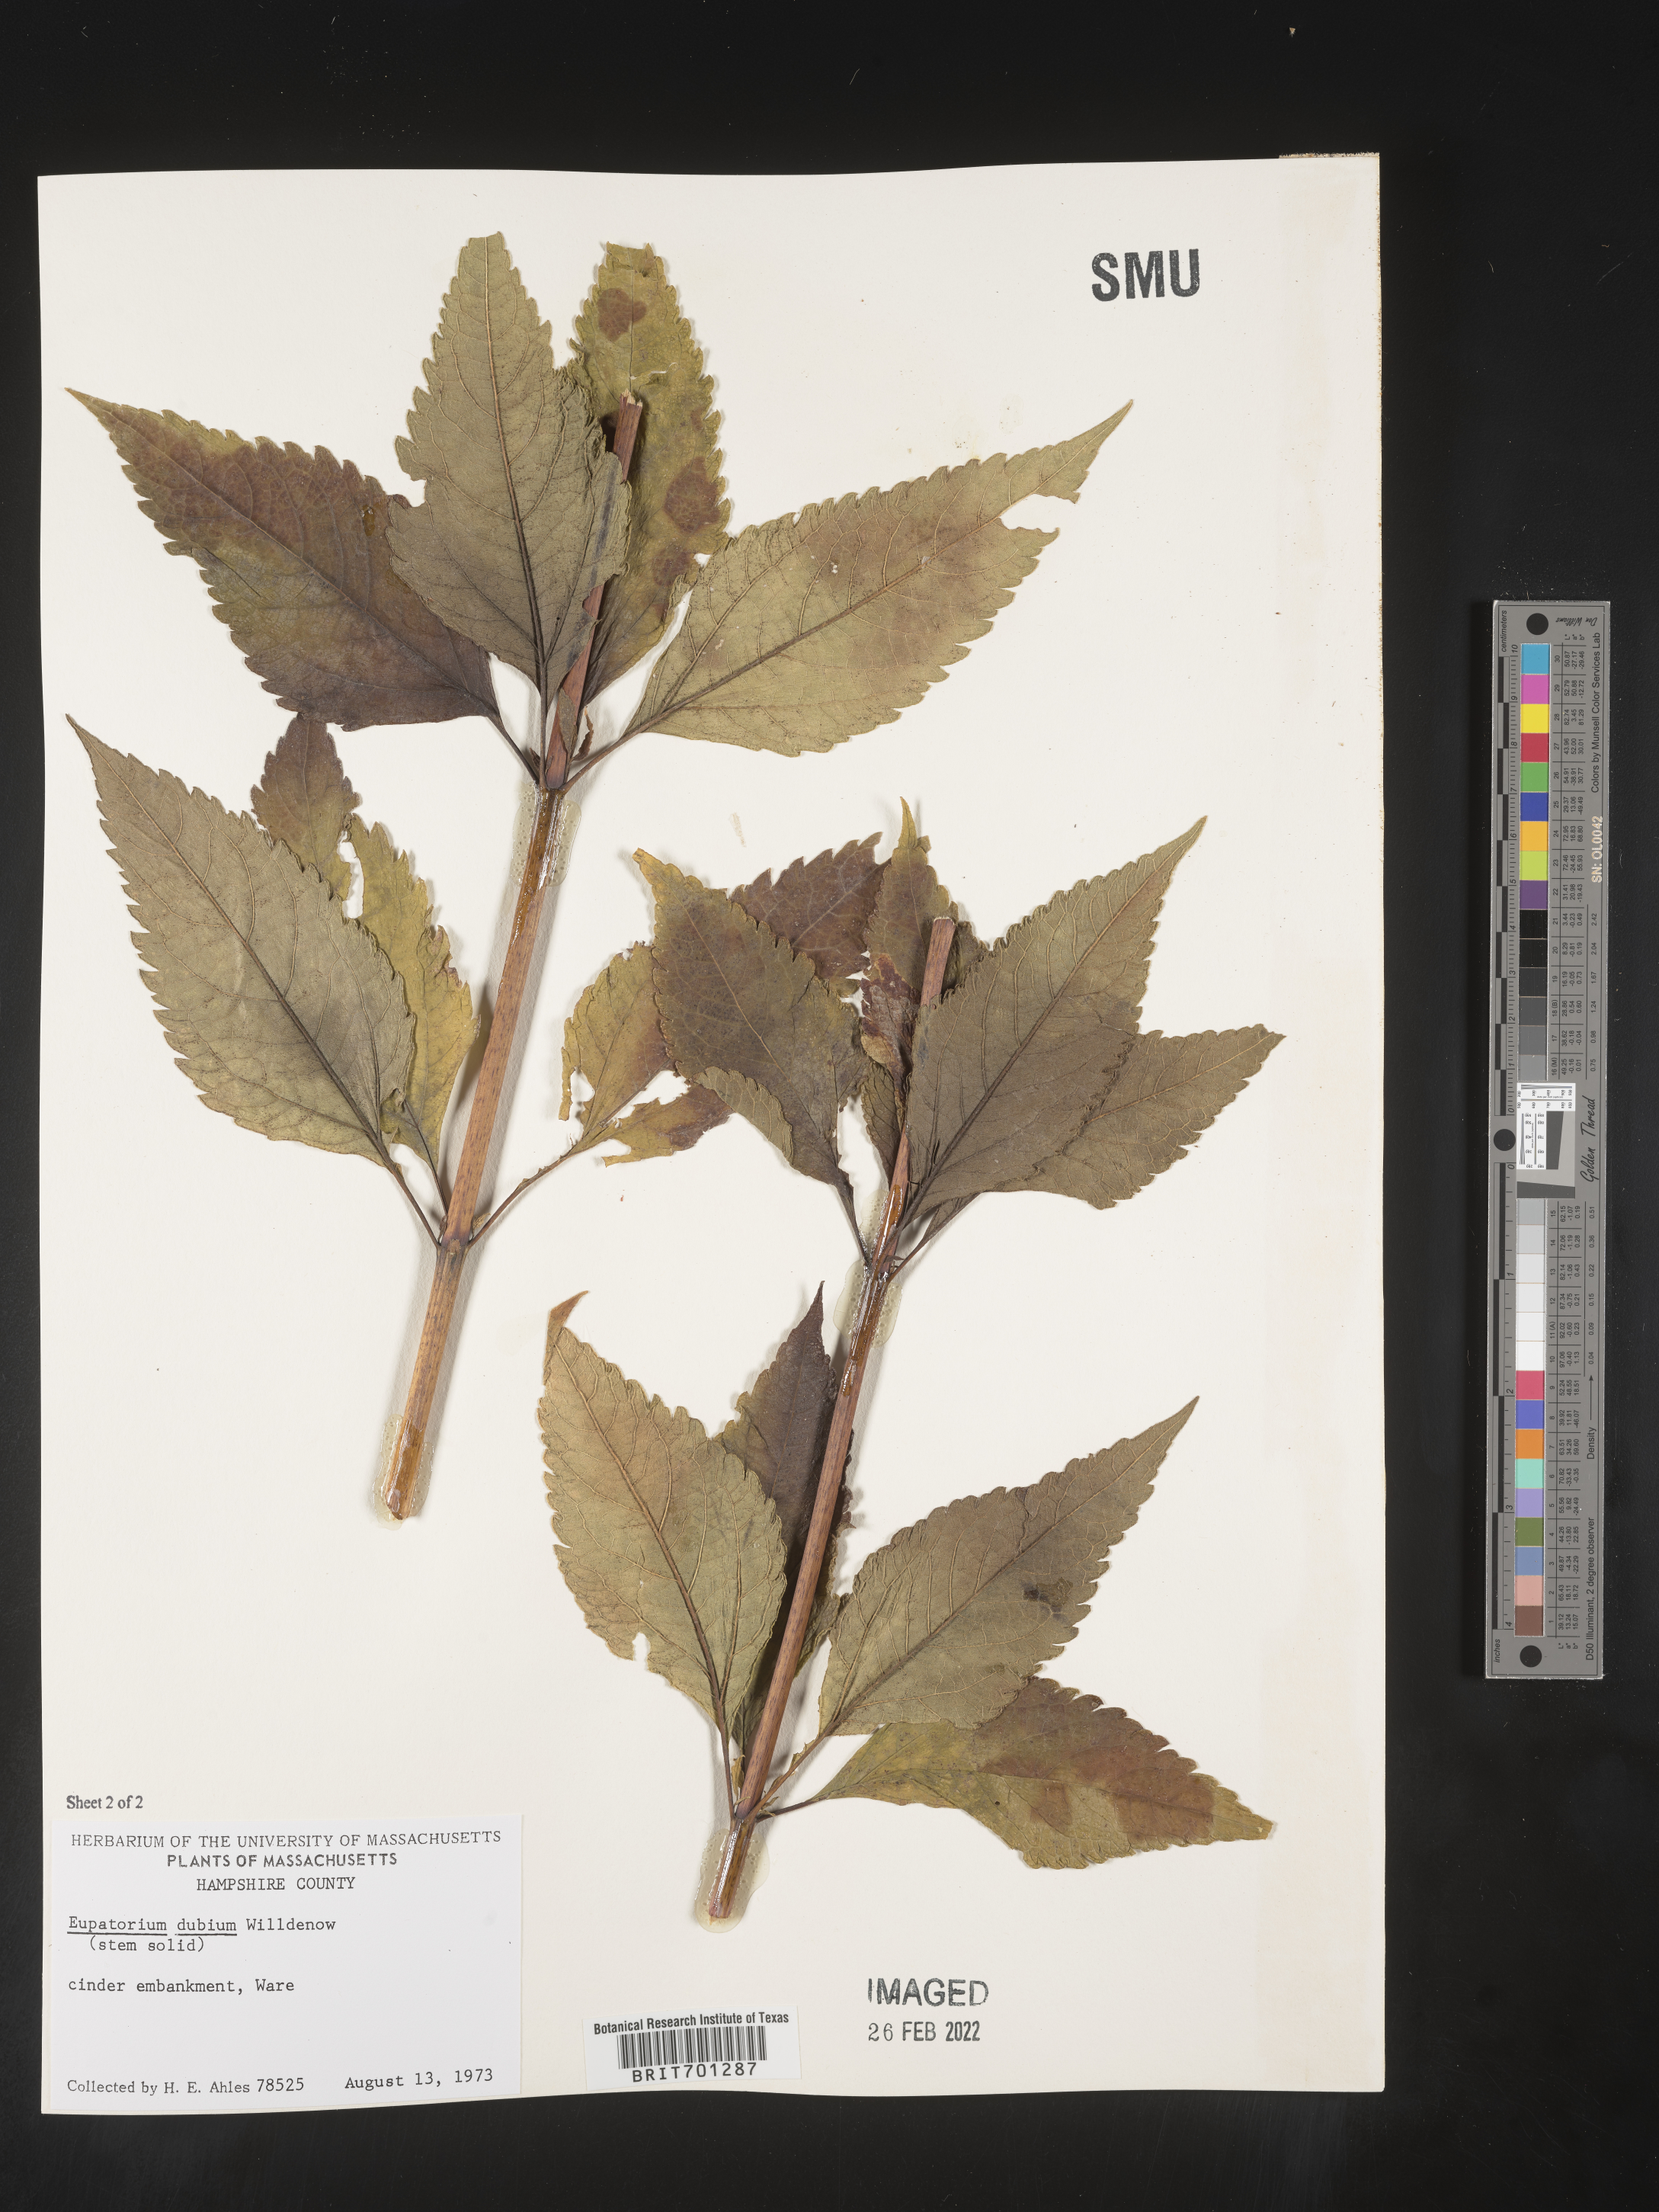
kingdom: Plantae
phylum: Tracheophyta
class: Magnoliopsida
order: Asterales
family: Asteraceae
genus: Eutrochium
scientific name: Eutrochium dubium
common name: Coastal plain joe pye weed
